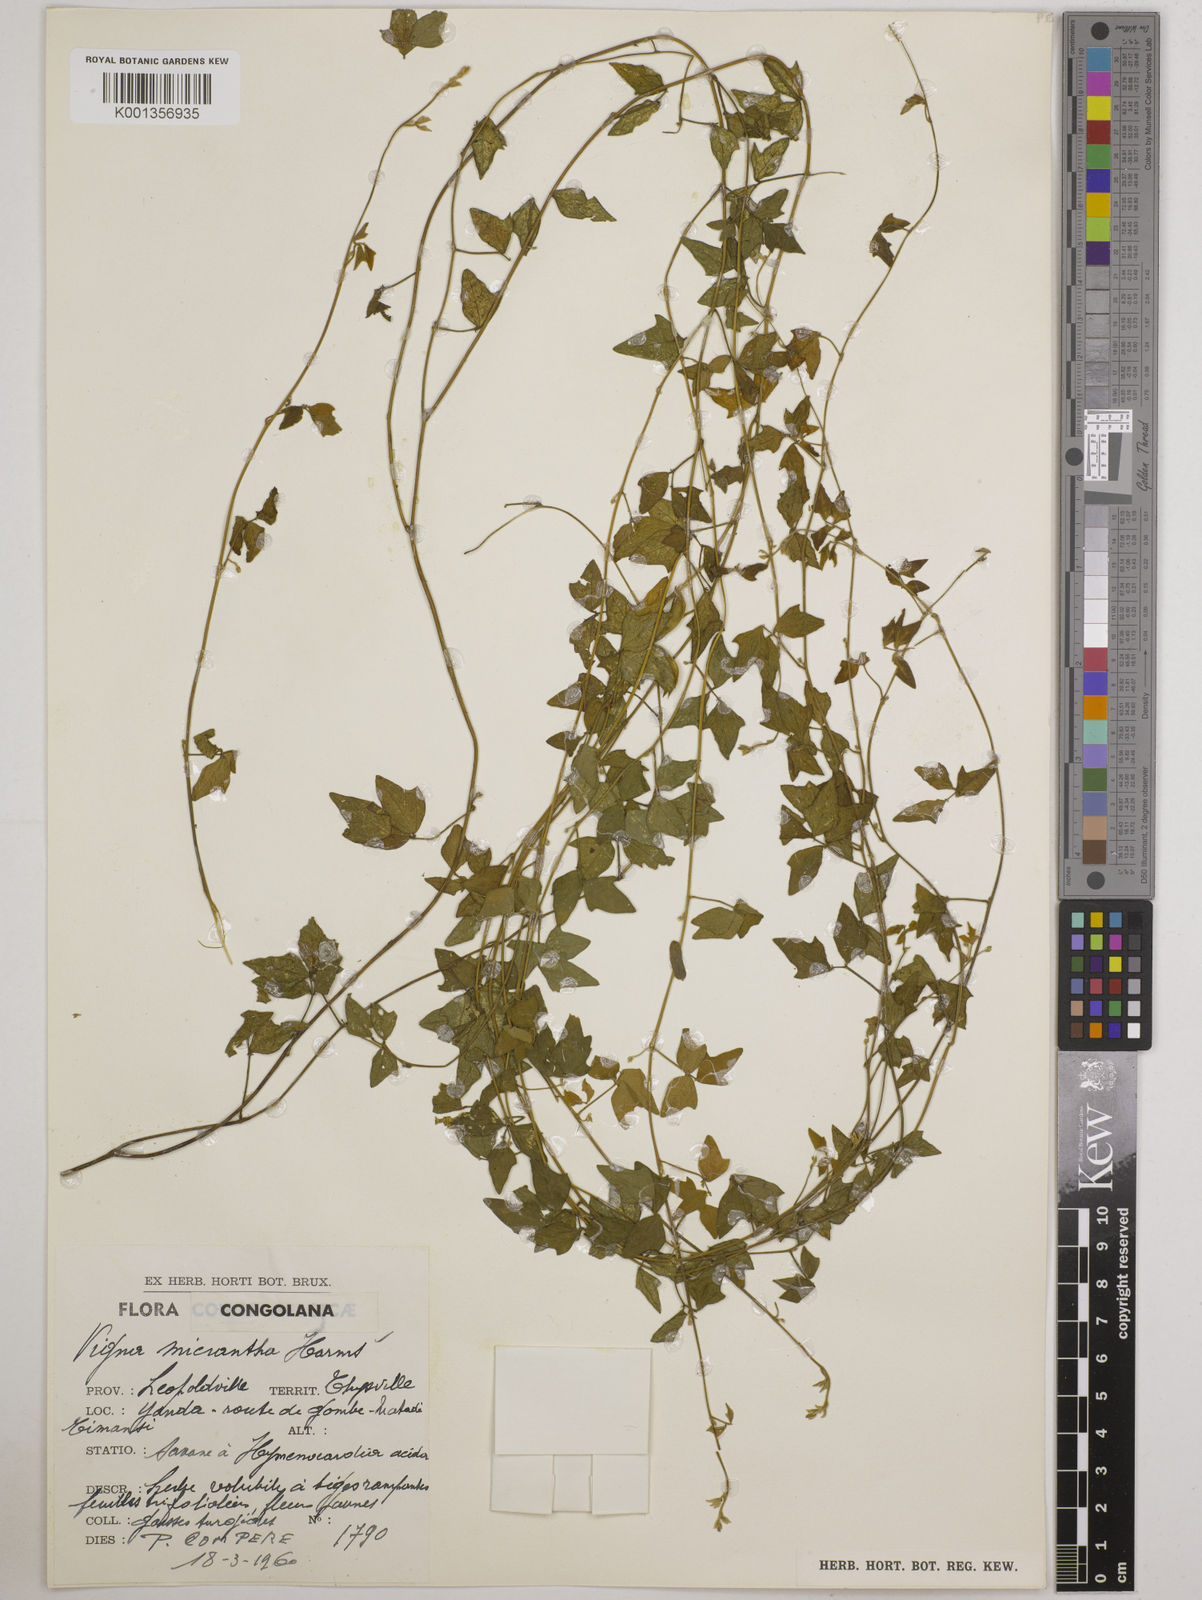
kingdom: Plantae
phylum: Tracheophyta
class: Magnoliopsida
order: Fabales
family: Fabaceae
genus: Vigna
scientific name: Vigna comosa
